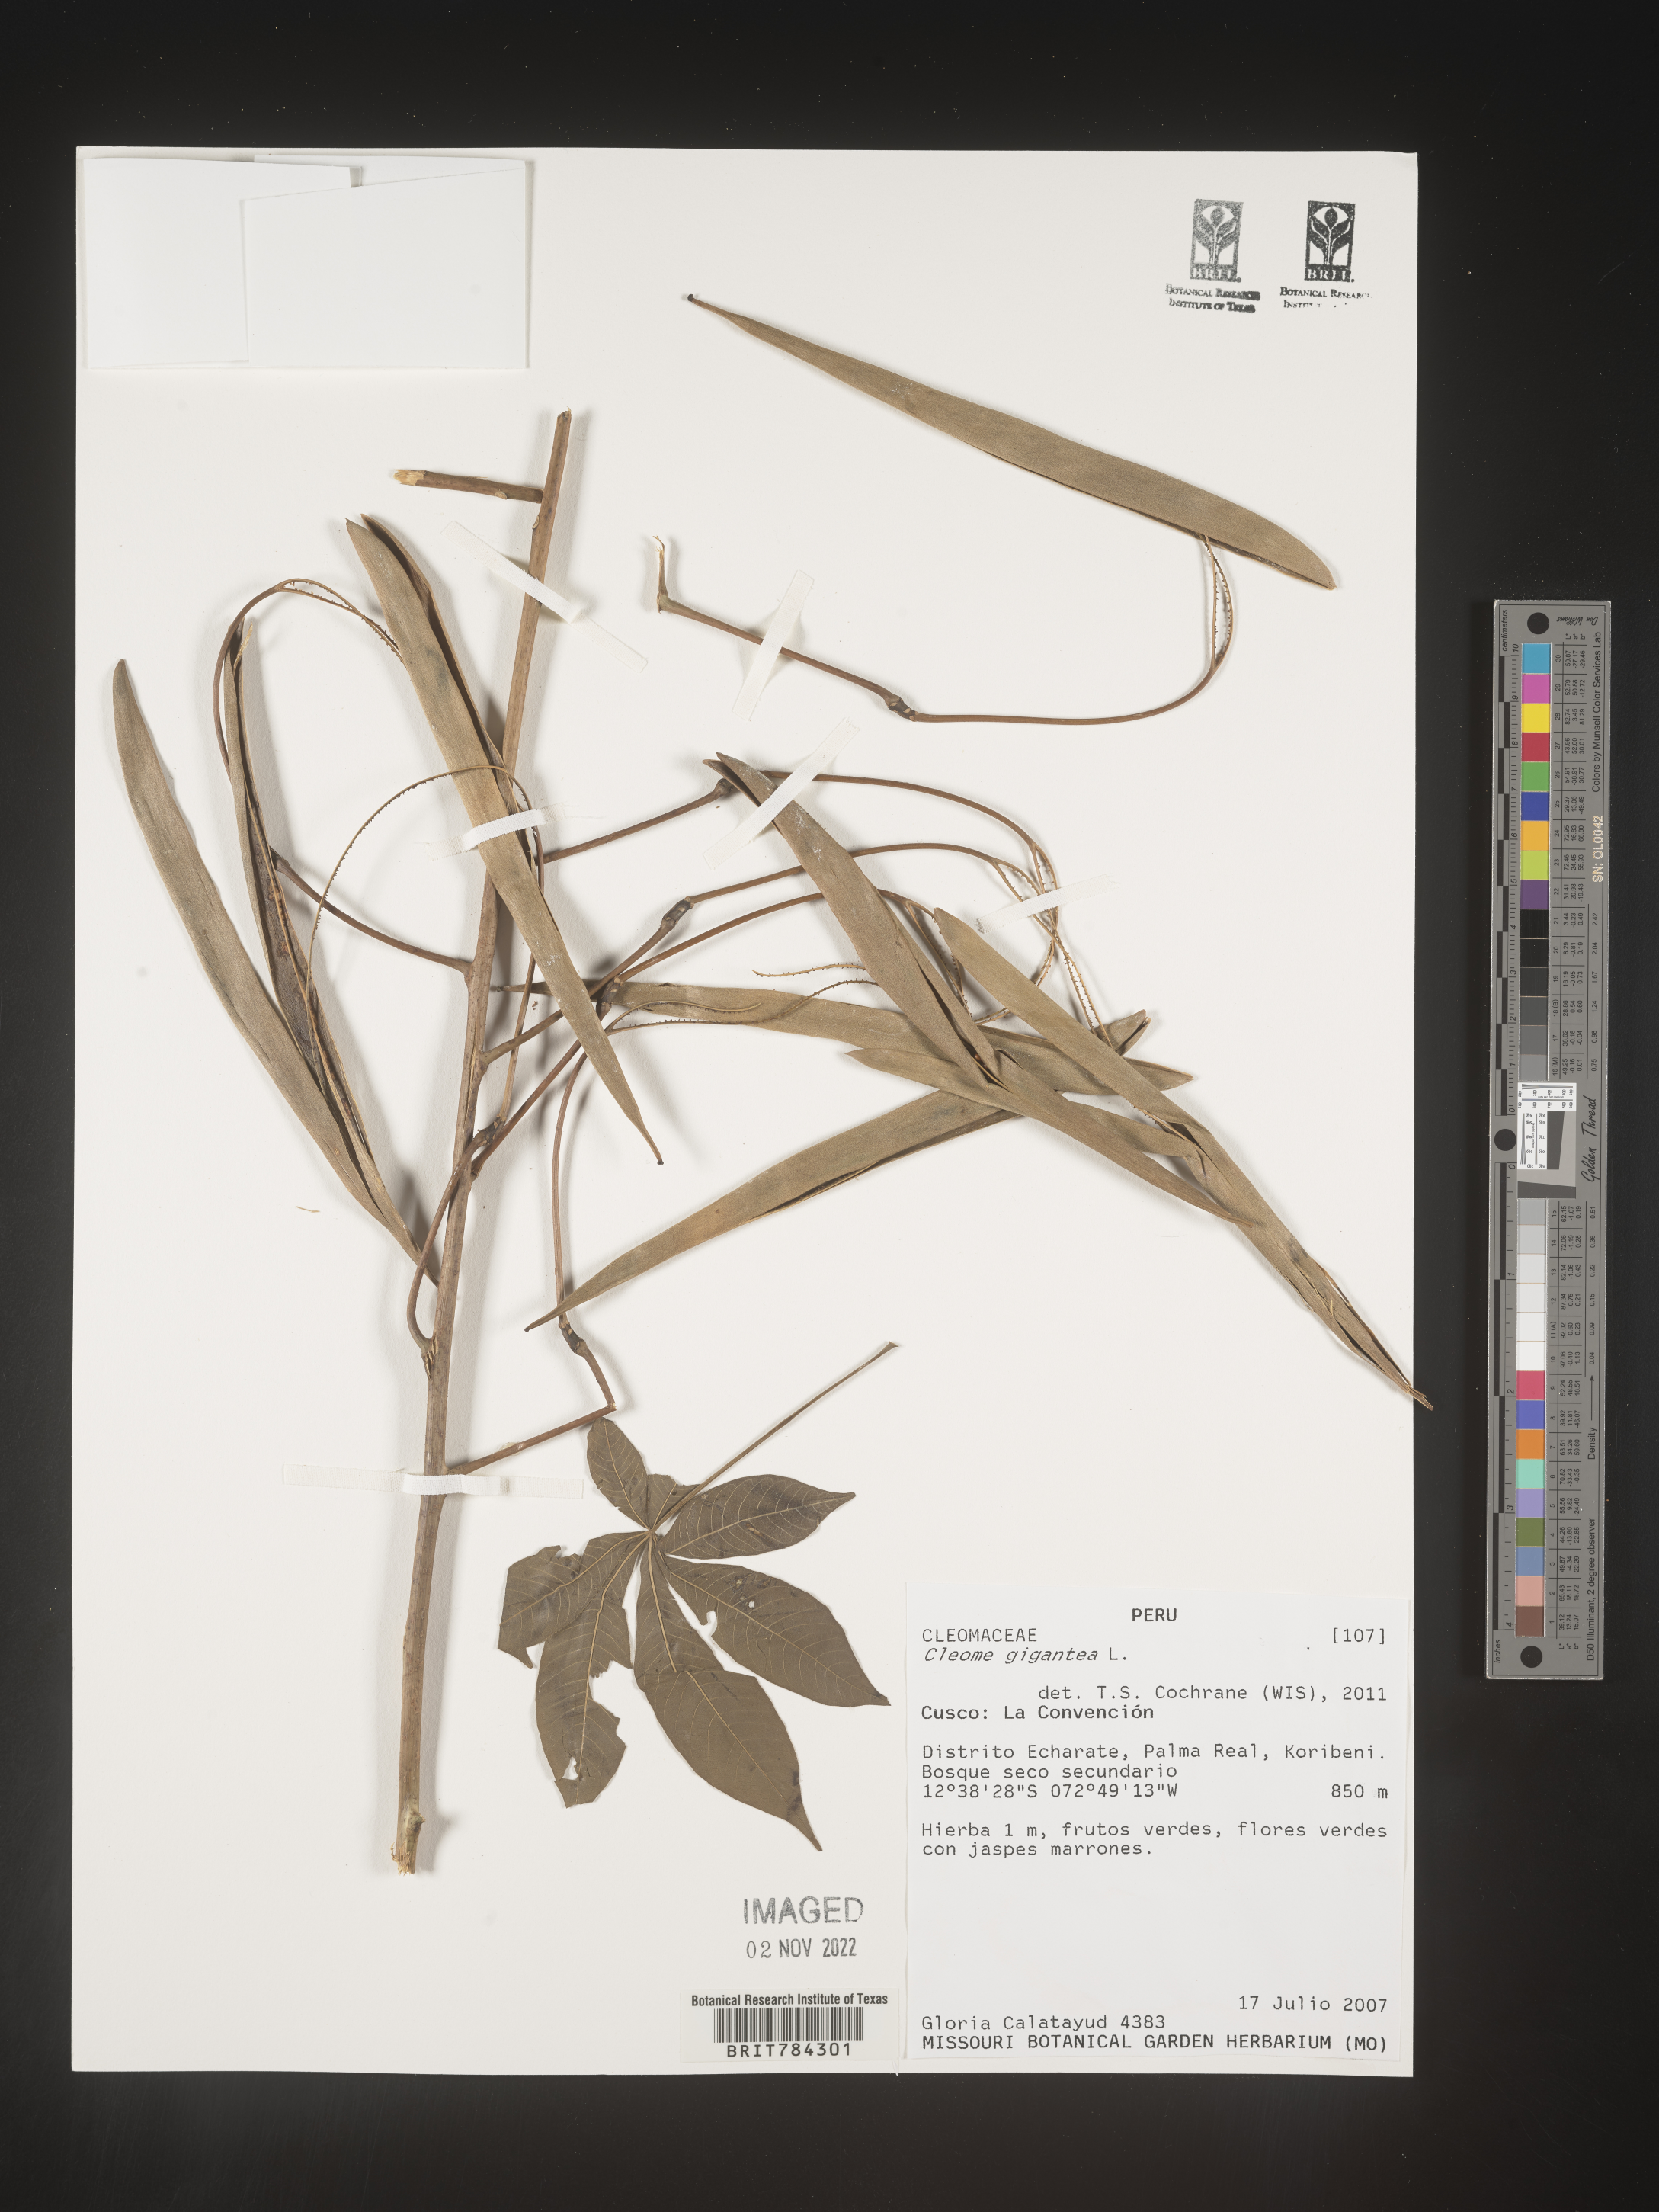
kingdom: Plantae
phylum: Tracheophyta
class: Magnoliopsida
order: Brassicales
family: Cleomaceae
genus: Cleome
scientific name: Cleome
